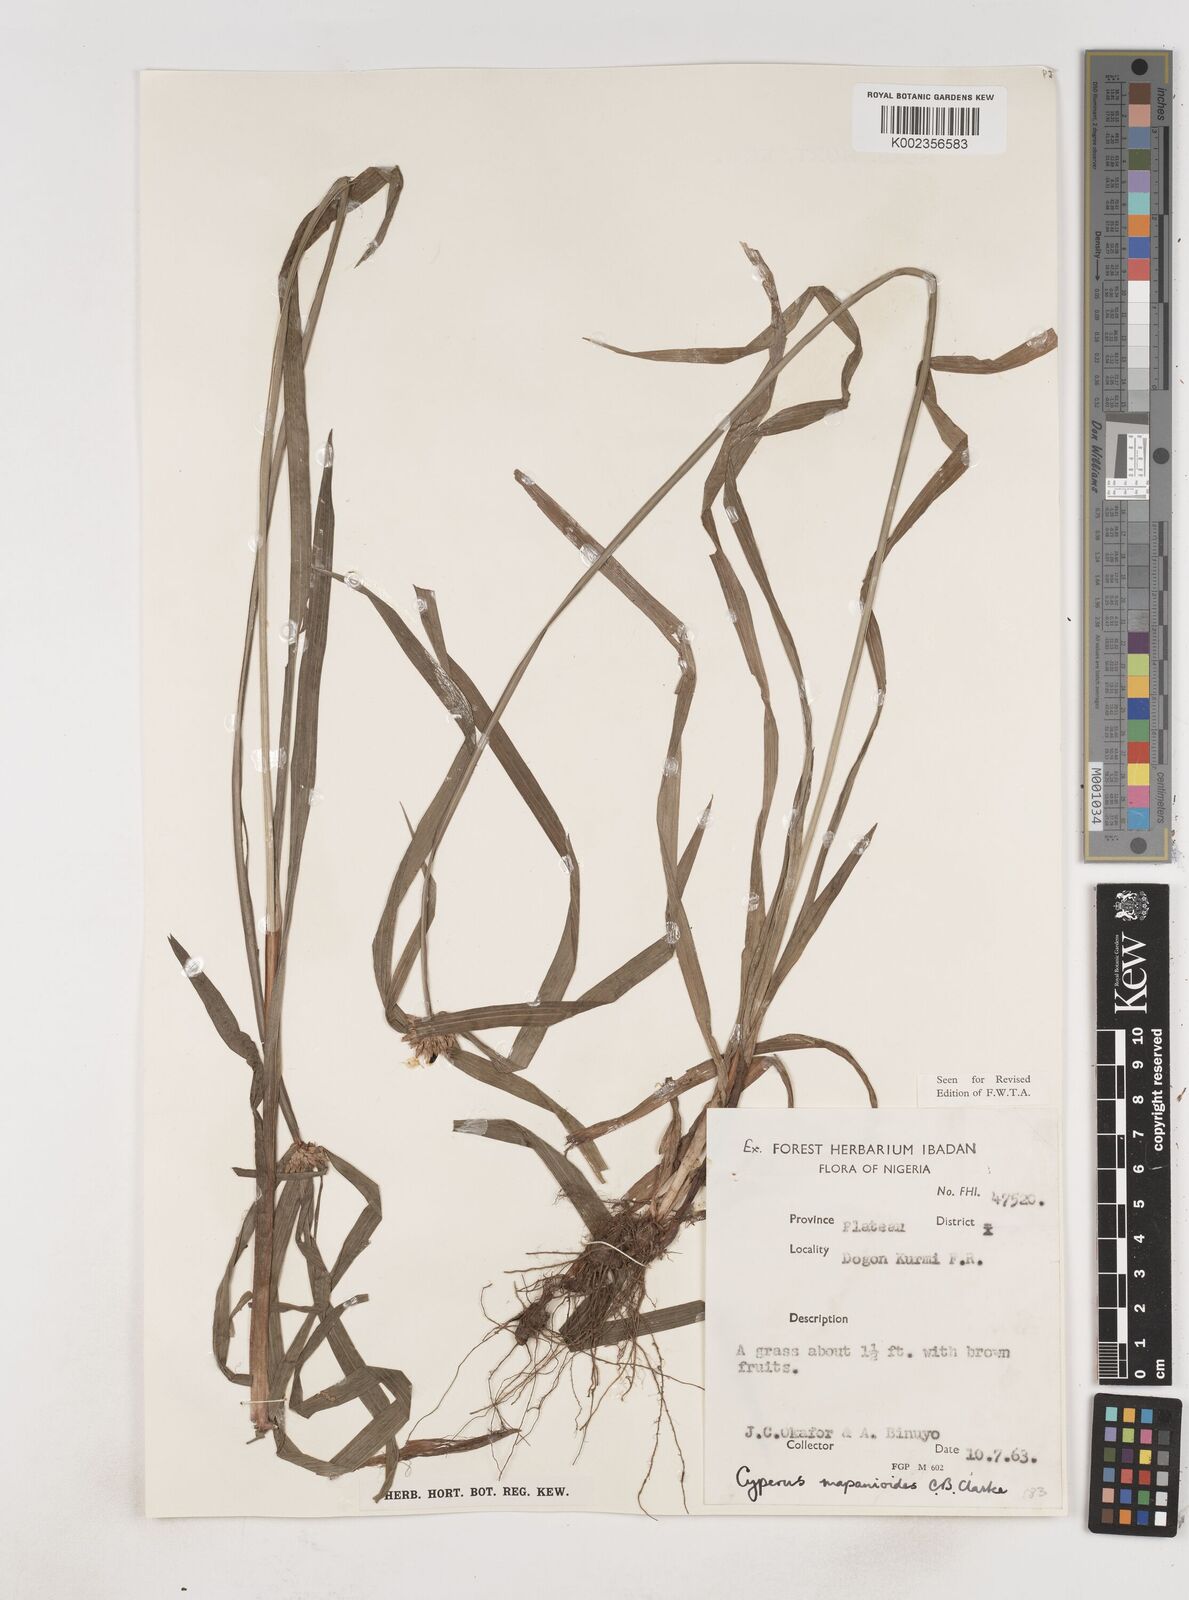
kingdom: Plantae
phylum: Tracheophyta
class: Liliopsida
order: Poales
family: Cyperaceae
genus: Cyperus
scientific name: Cyperus mapanioides
